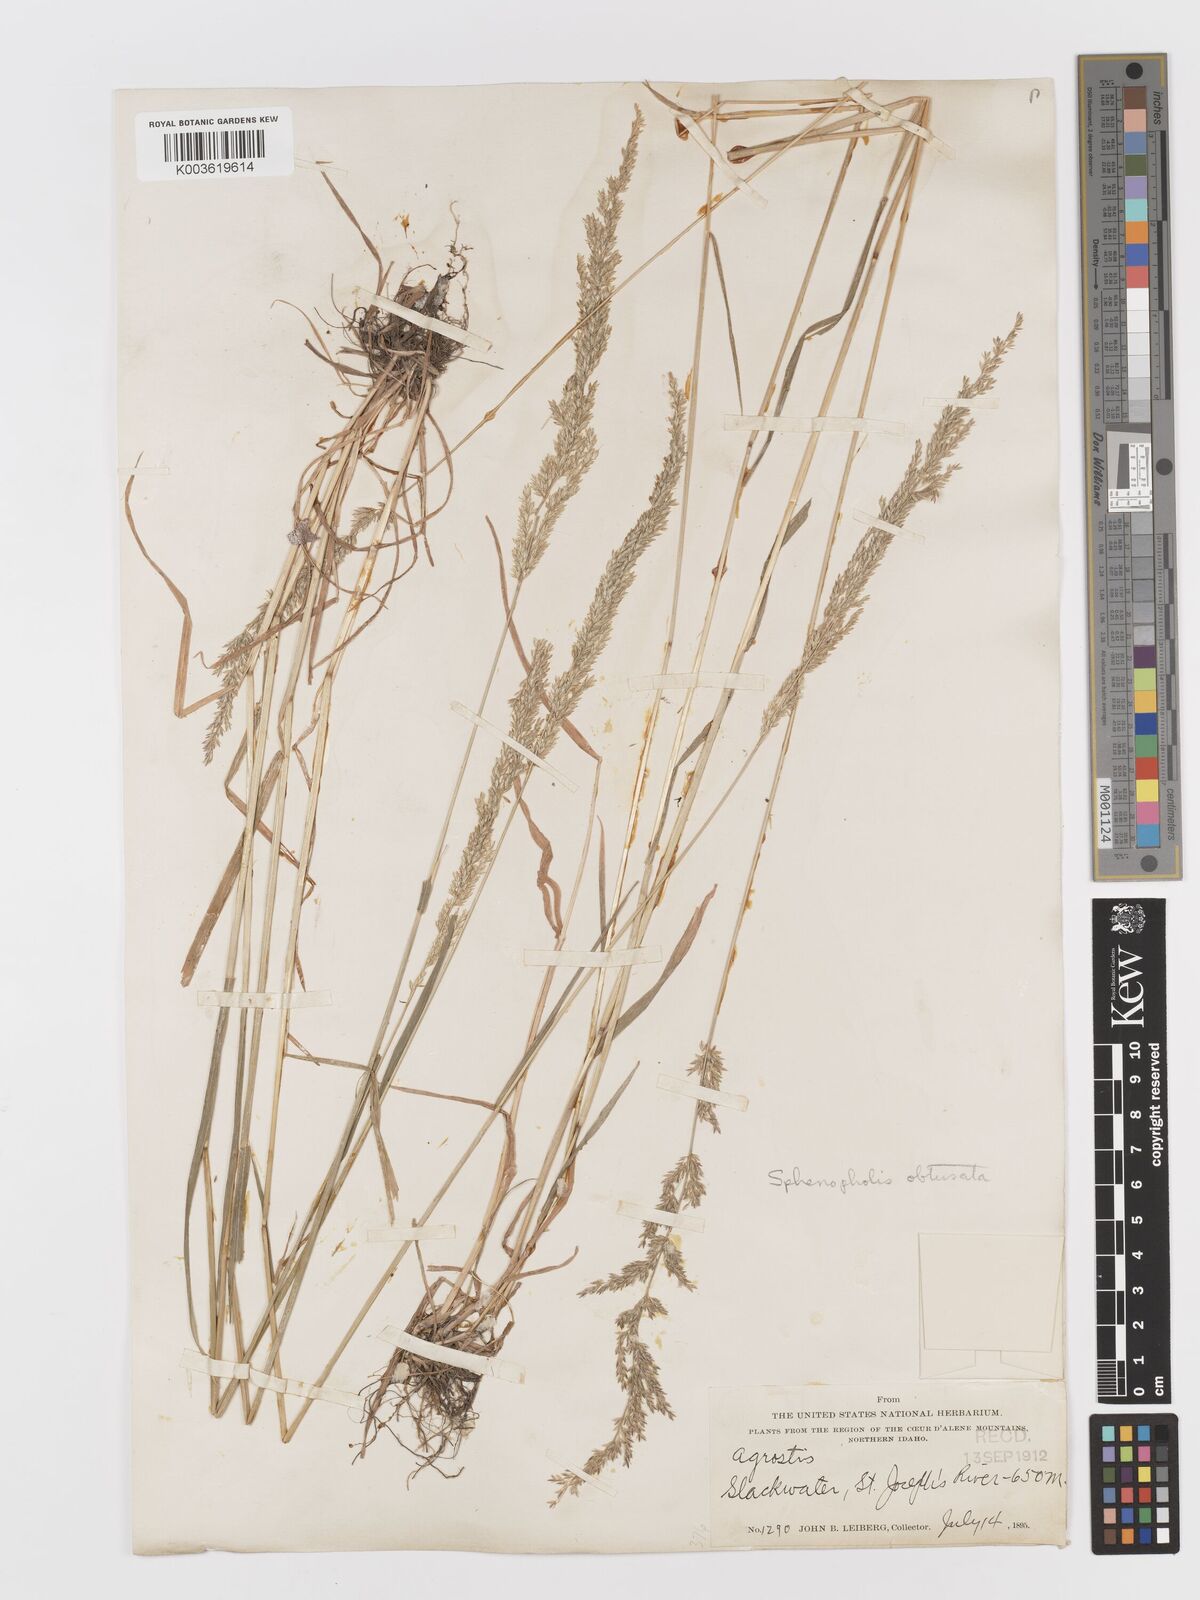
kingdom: Plantae
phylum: Tracheophyta
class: Liliopsida
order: Poales
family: Poaceae
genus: Sphenopholis
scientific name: Sphenopholis obtusata
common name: Prairie grass
